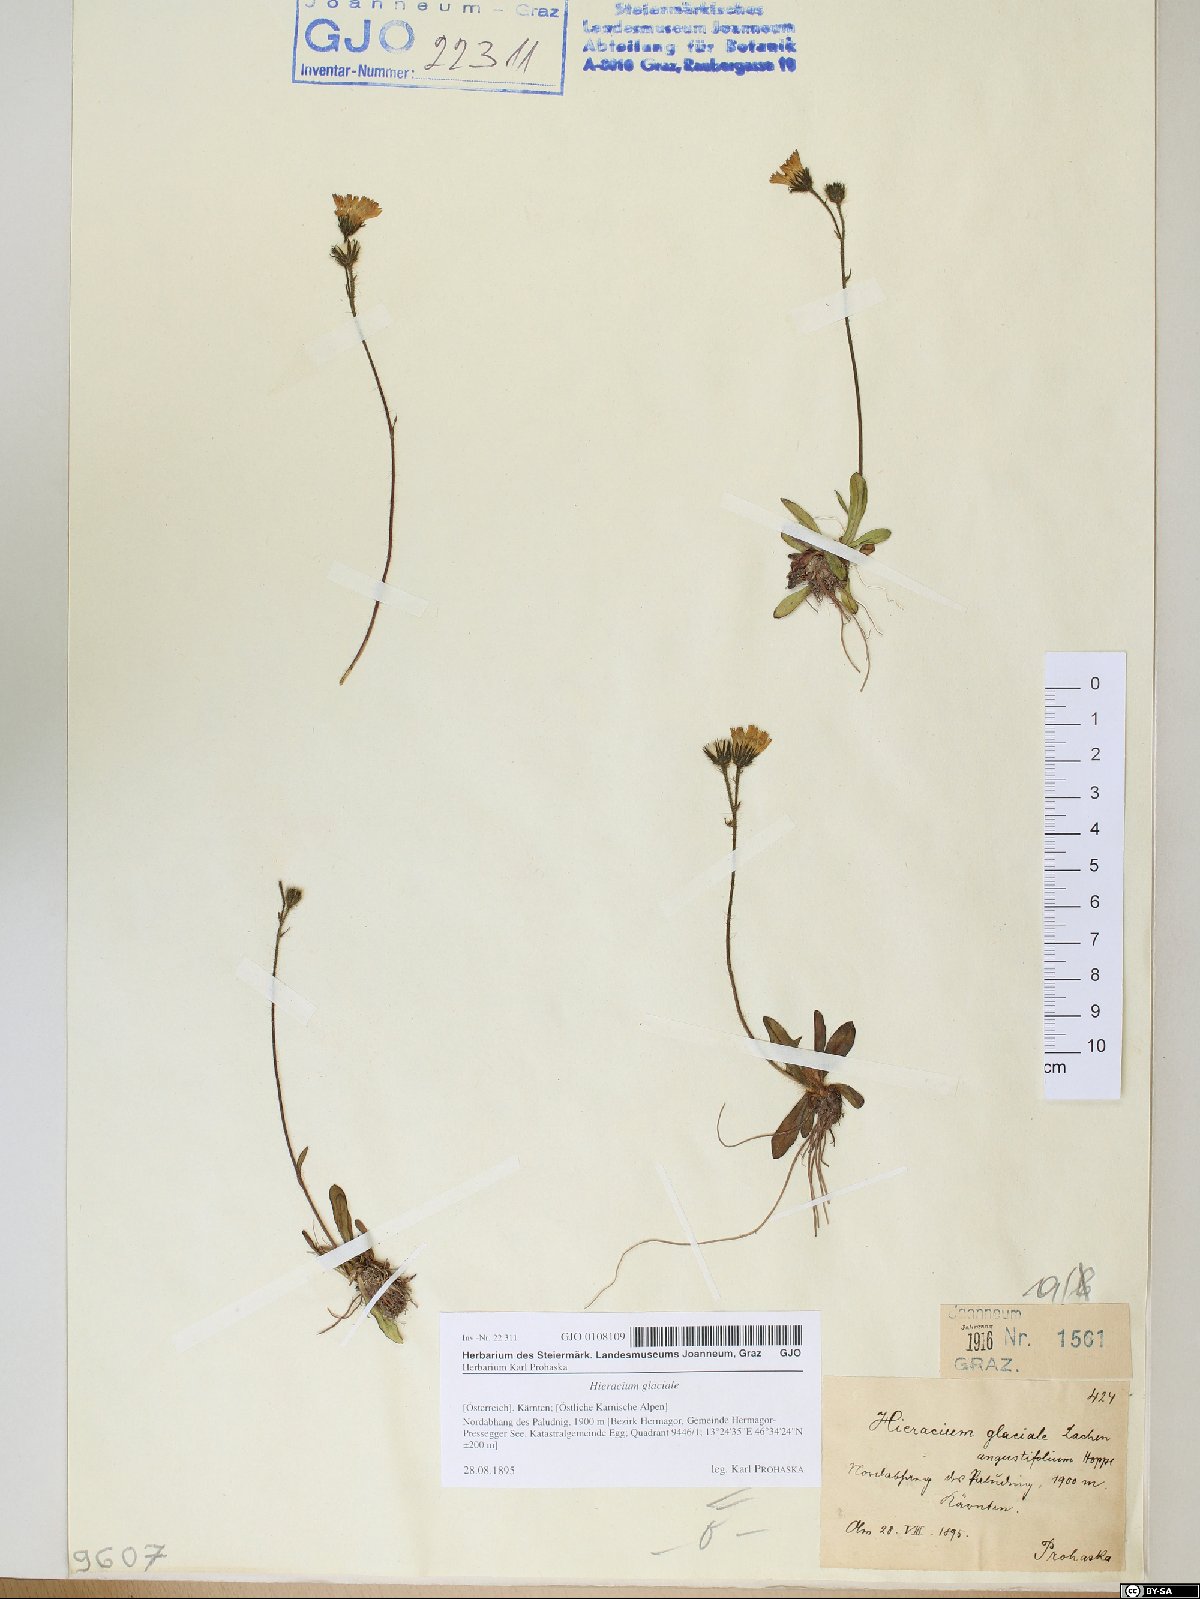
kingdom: Plantae
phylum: Tracheophyta
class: Magnoliopsida
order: Asterales
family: Asteraceae
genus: Pilosella
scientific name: Pilosella glacialis
